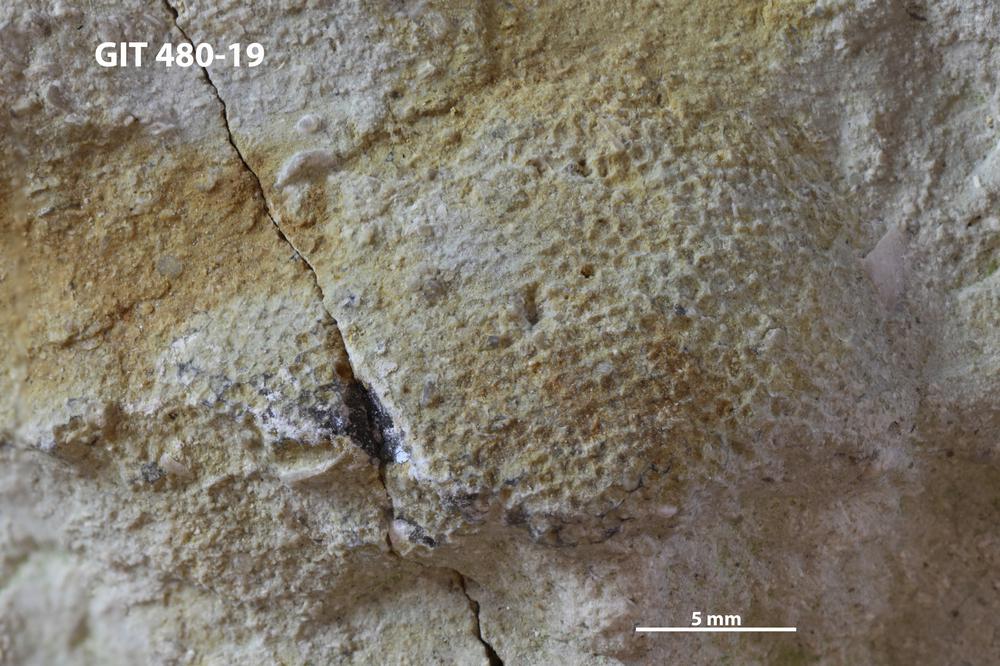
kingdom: Animalia
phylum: Bryozoa
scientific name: Bryozoa
